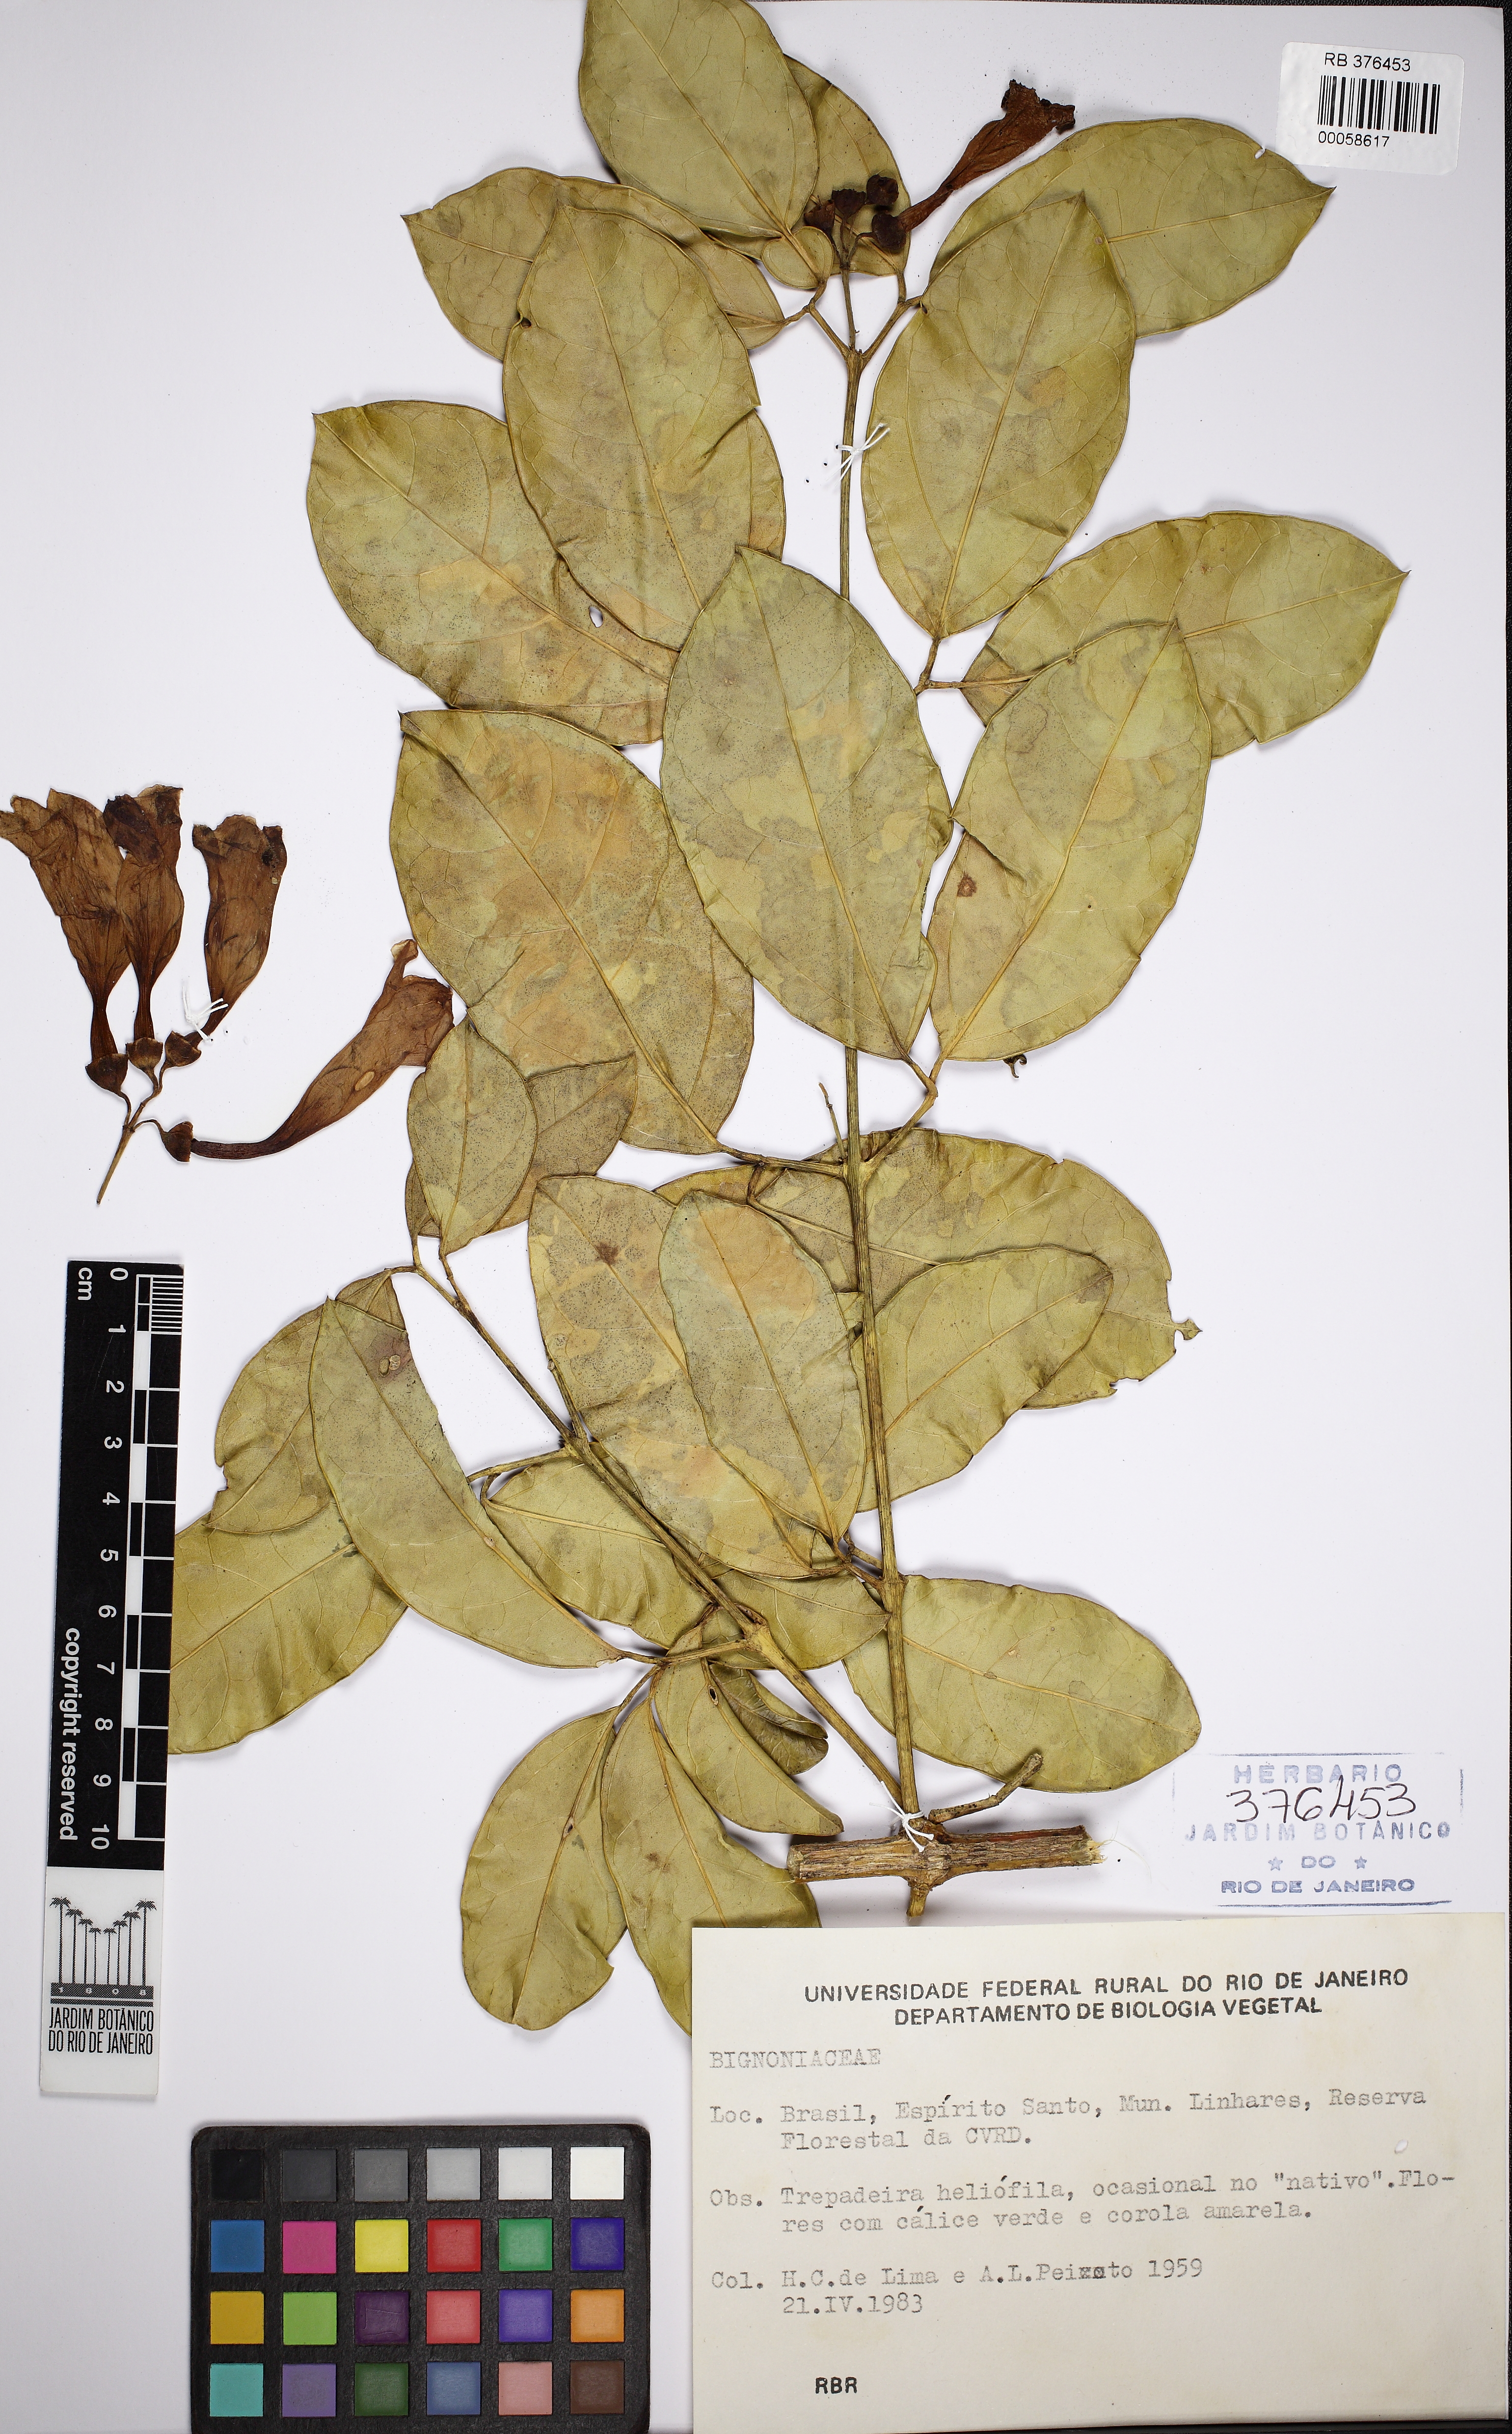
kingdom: Plantae
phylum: Tracheophyta
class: Magnoliopsida
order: Lamiales
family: Bignoniaceae
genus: Anemopaegma
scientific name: Anemopaegma floridum
